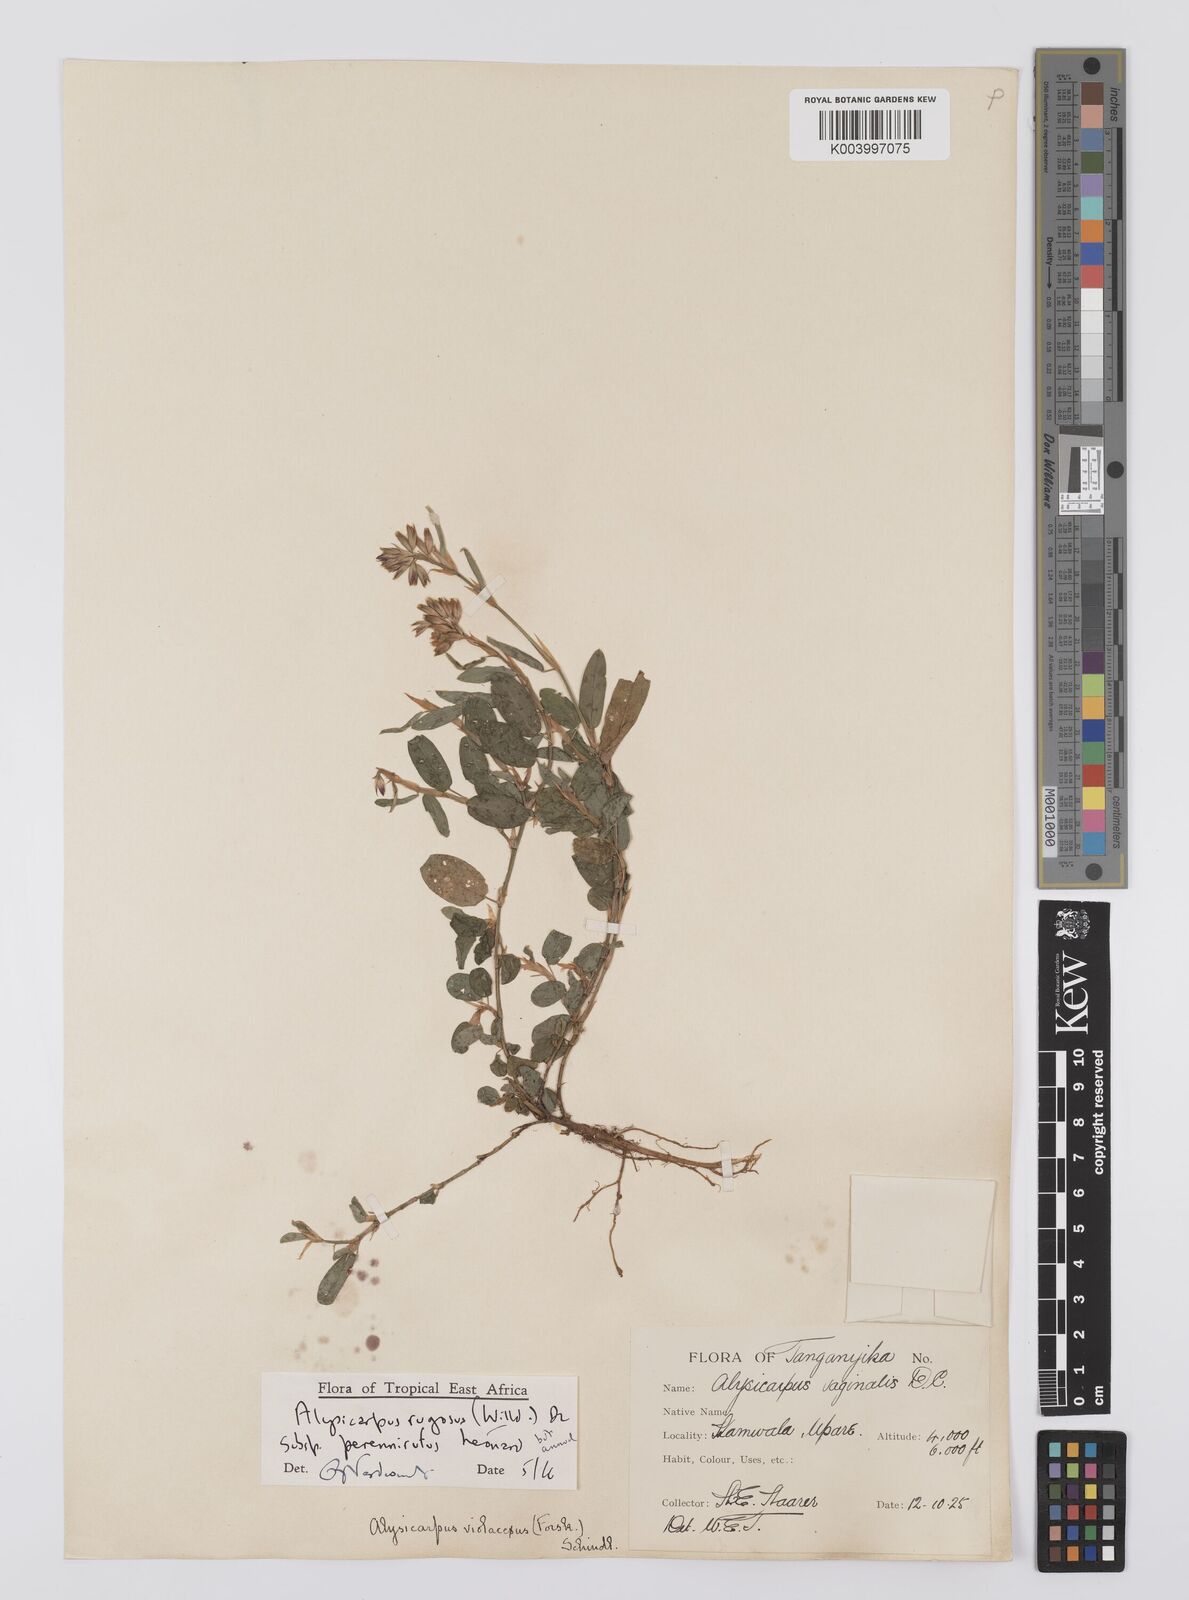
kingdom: Plantae
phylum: Tracheophyta
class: Magnoliopsida
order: Fabales
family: Fabaceae
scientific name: Fabaceae
